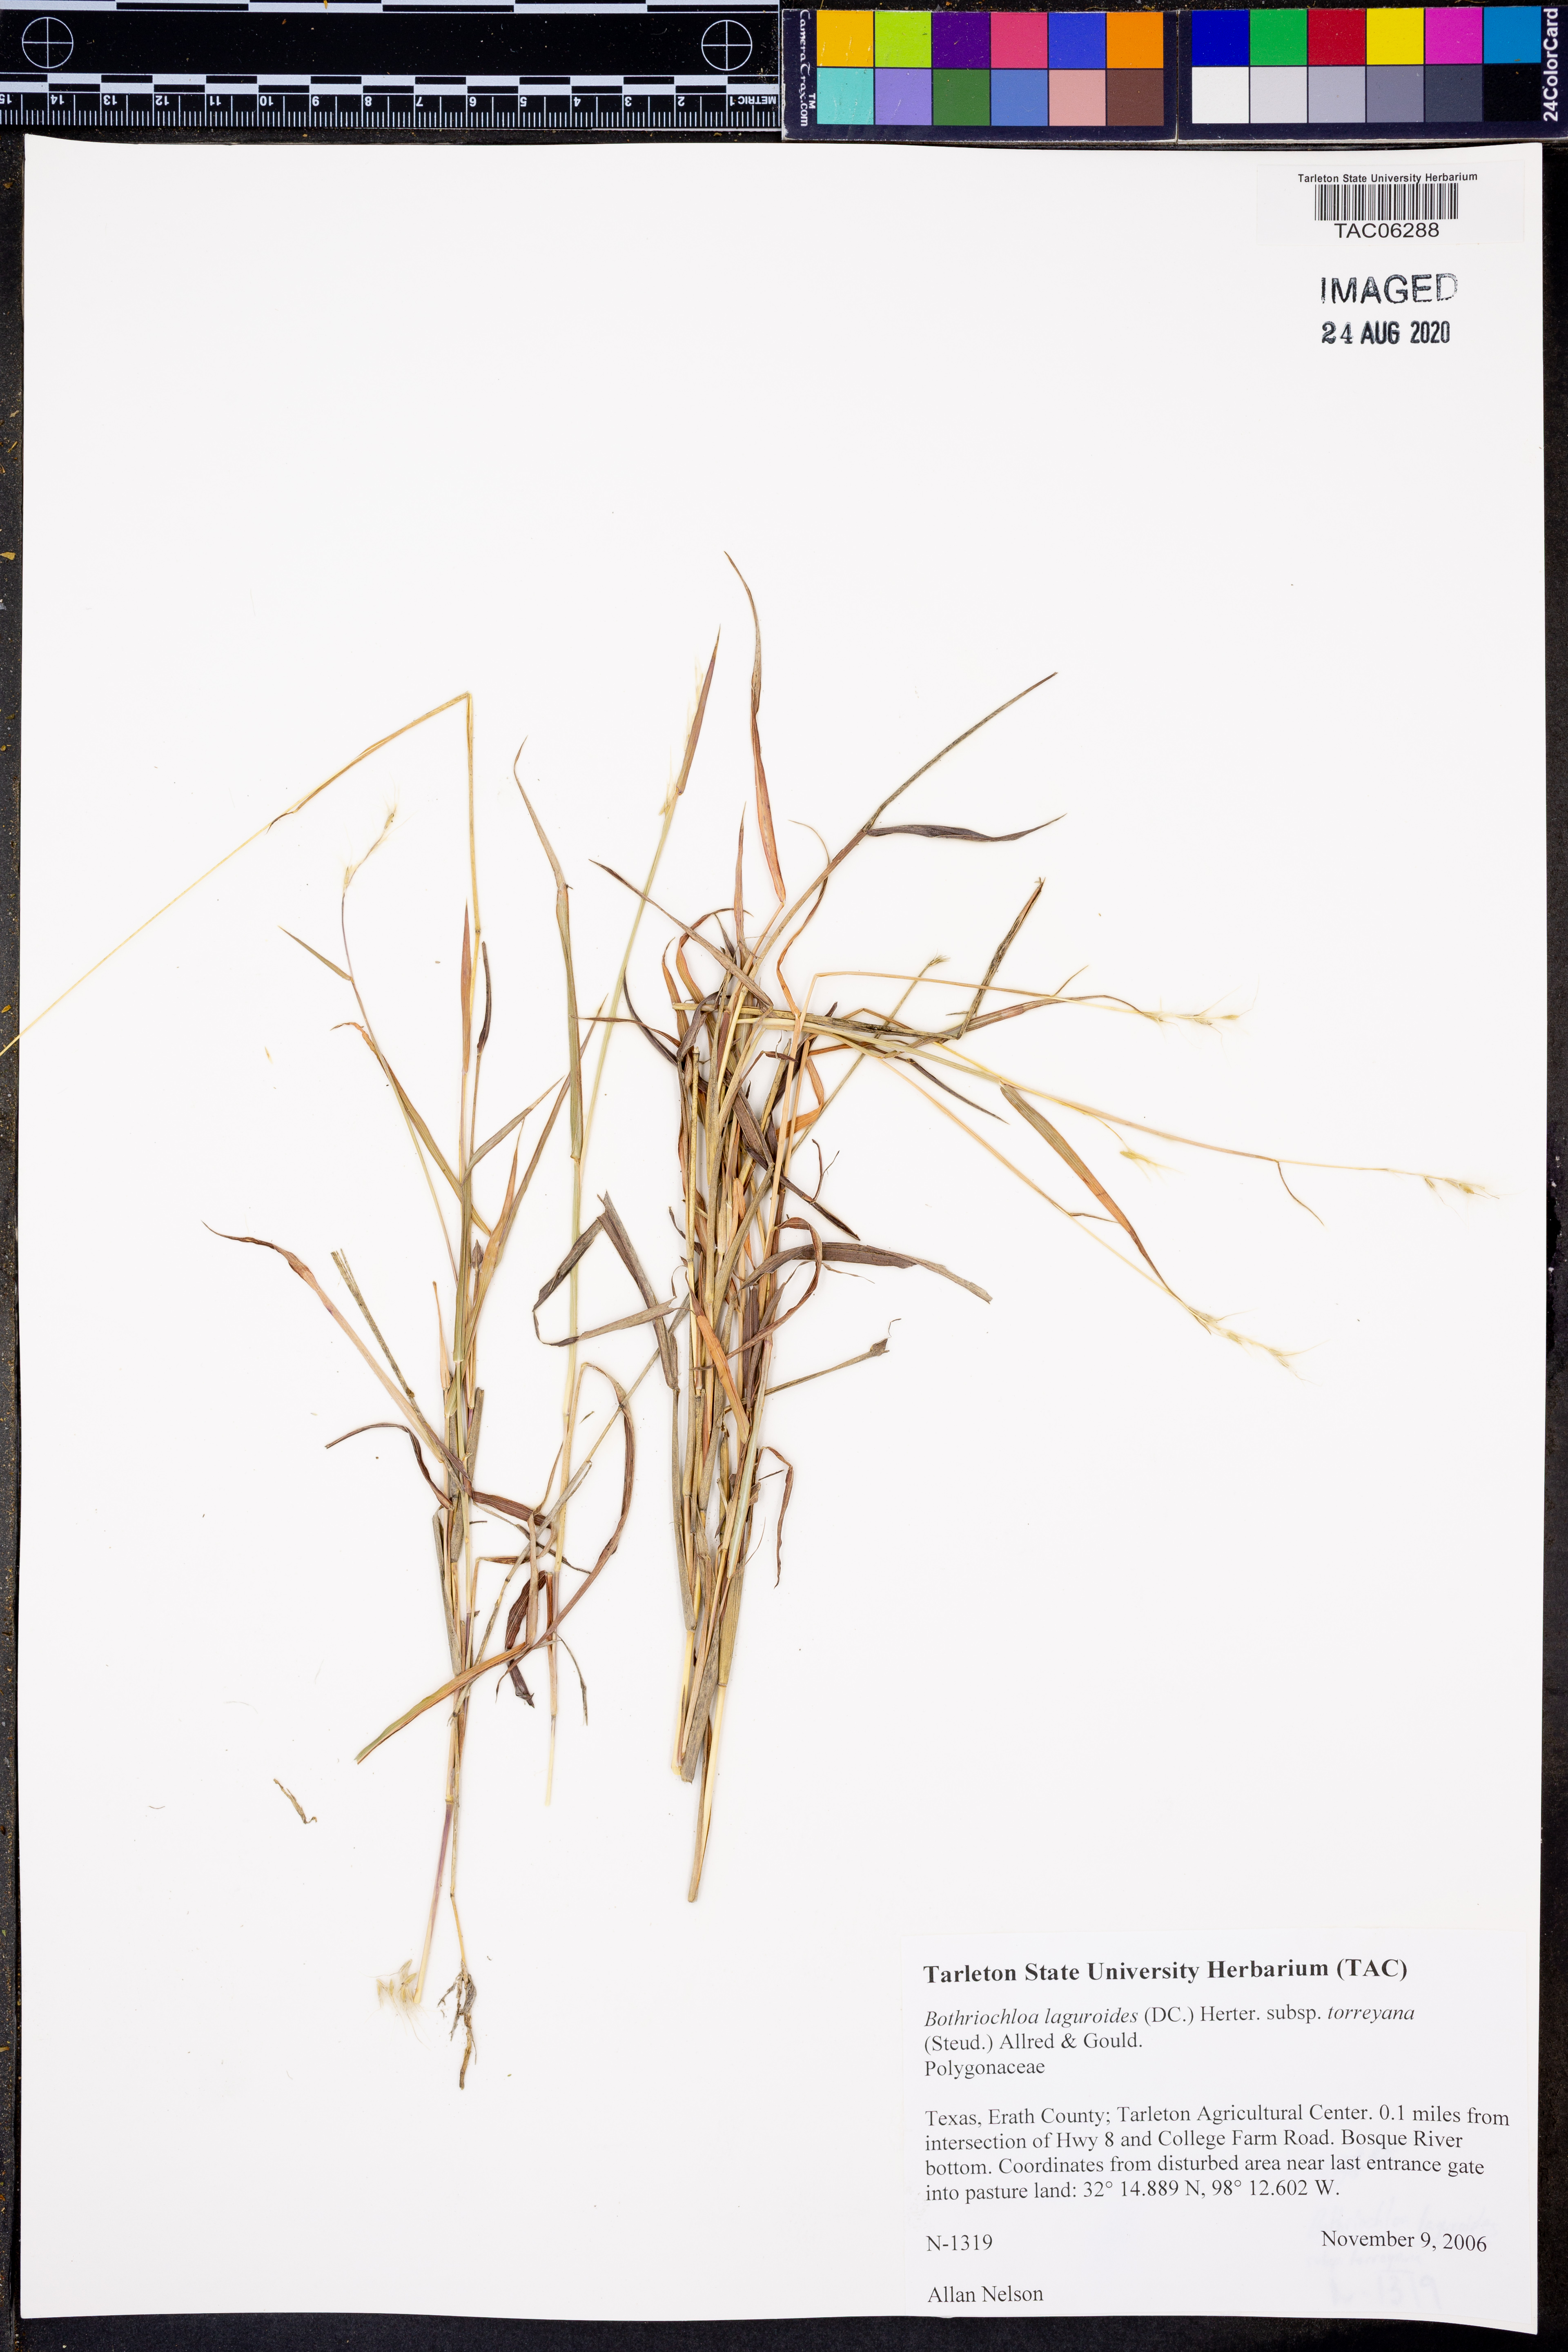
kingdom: Plantae
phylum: Tracheophyta
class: Liliopsida
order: Poales
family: Poaceae
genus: Bothriochloa
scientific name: Bothriochloa torreyana
